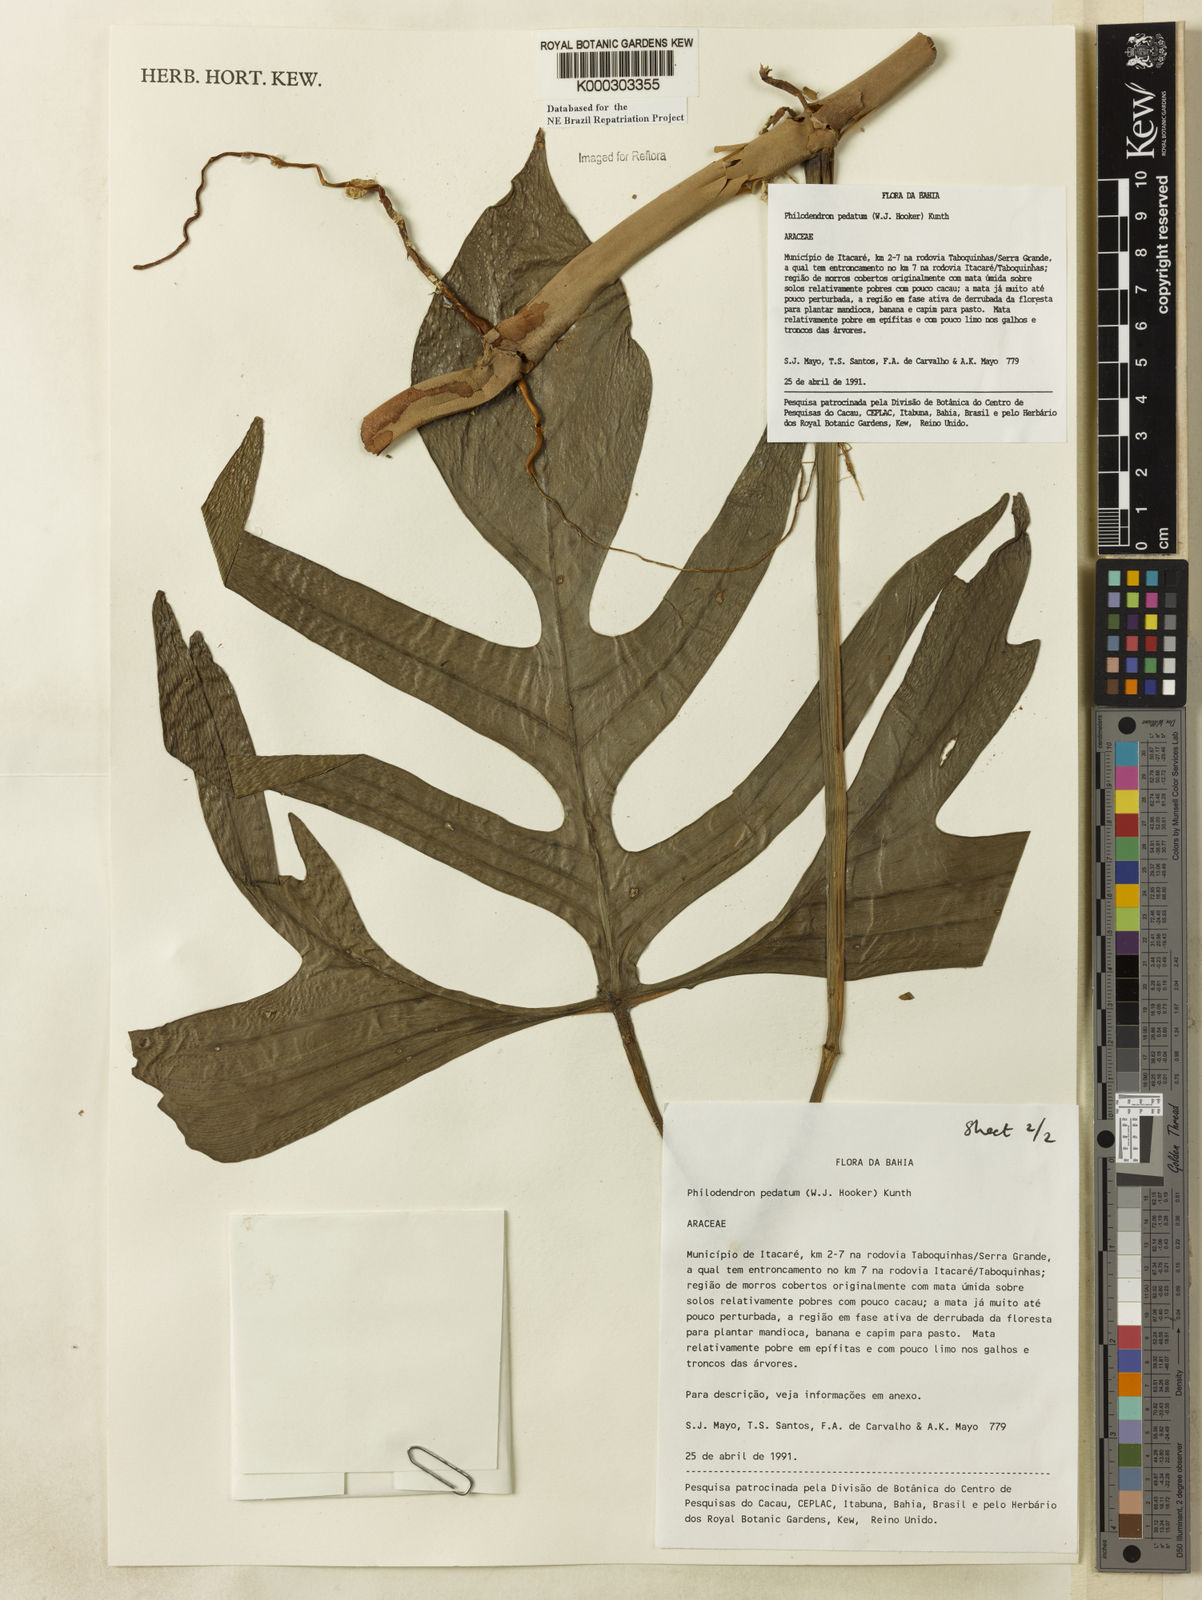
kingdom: Plantae
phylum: Tracheophyta
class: Liliopsida
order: Alismatales
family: Araceae
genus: Philodendron
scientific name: Philodendron pedatum
